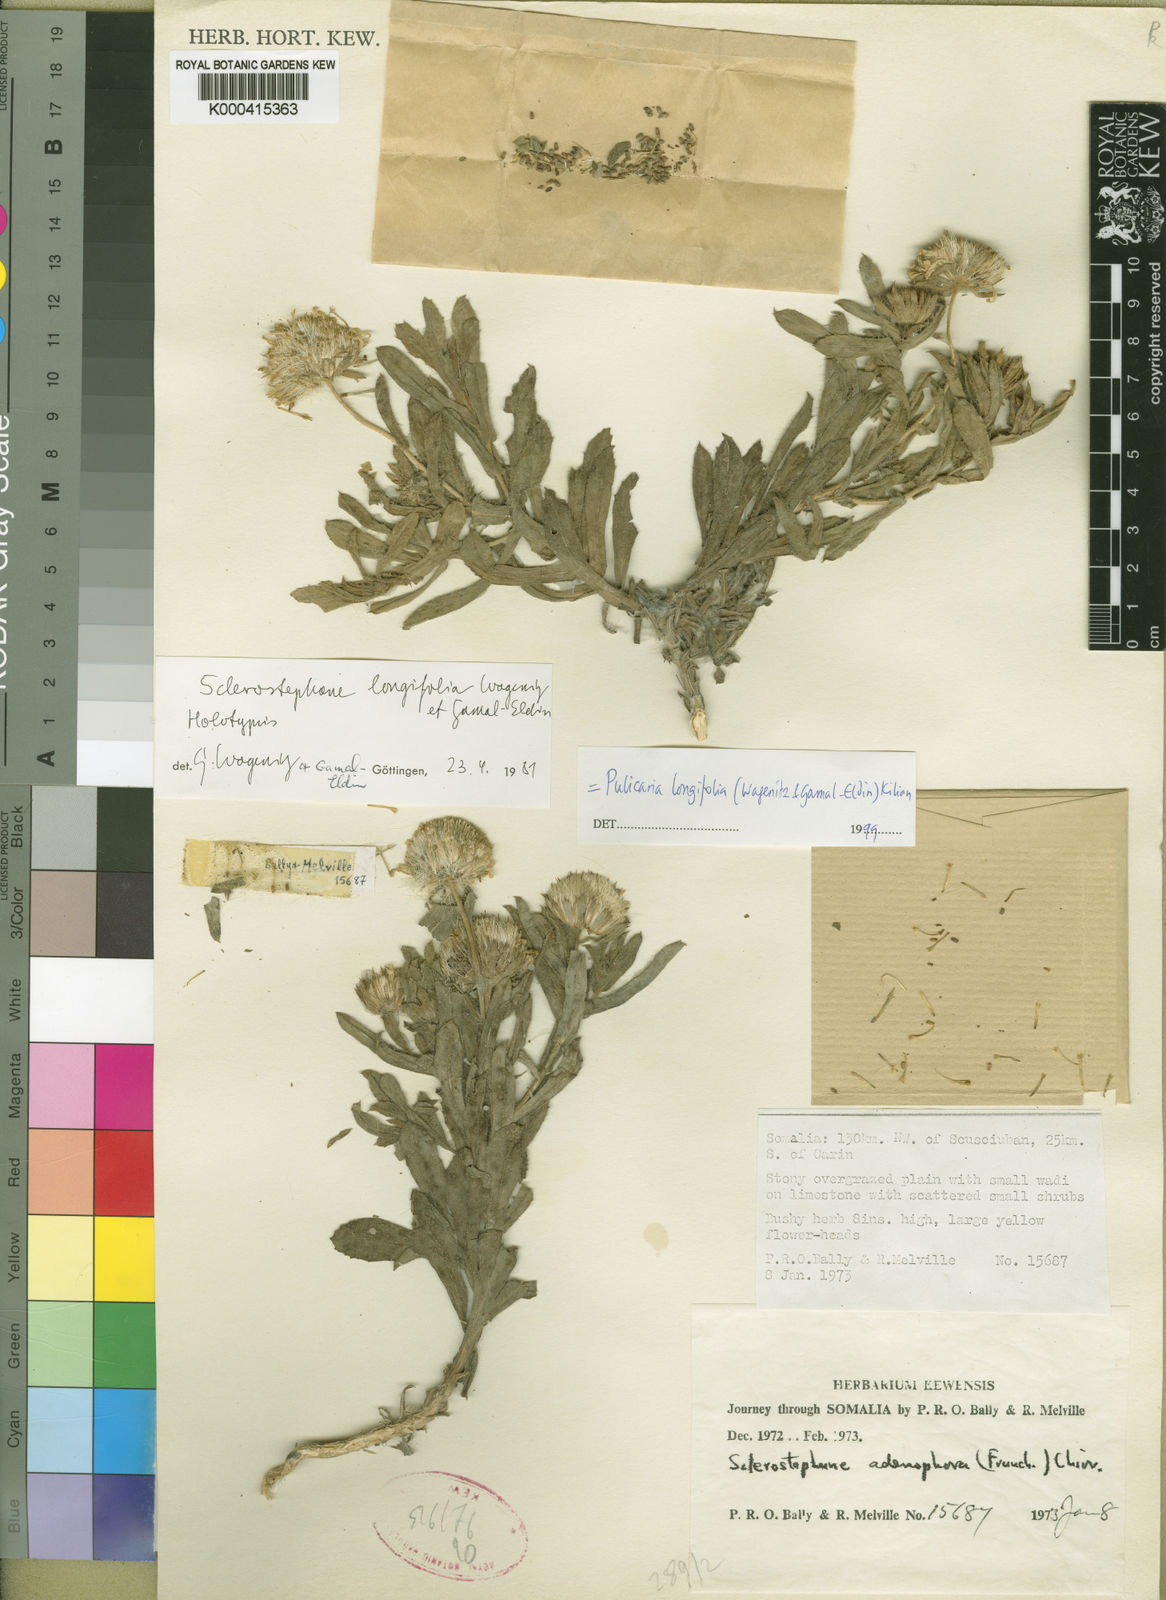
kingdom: Plantae
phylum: Tracheophyta
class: Magnoliopsida
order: Asterales
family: Asteraceae
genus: Pulicaria
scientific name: Pulicaria uniseriata
